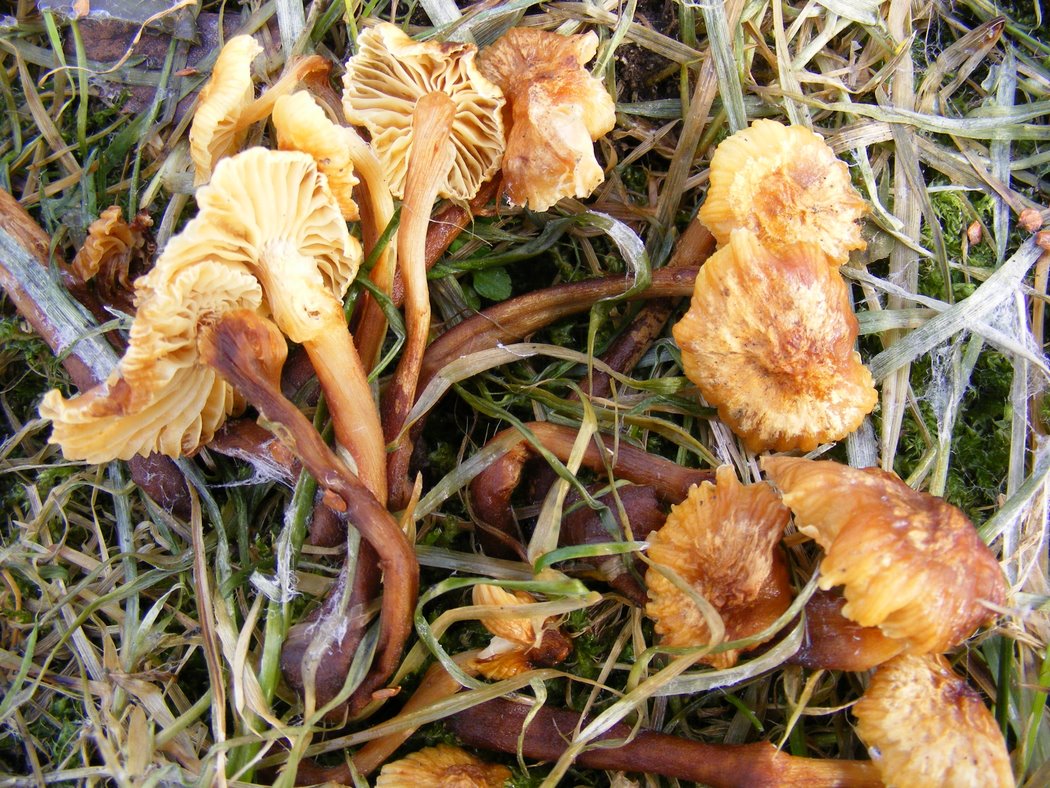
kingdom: Fungi
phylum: Basidiomycota
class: Agaricomycetes
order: Agaricales
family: Physalacriaceae
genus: Flammulina
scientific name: Flammulina elastica
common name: pile-fløjlsfod
